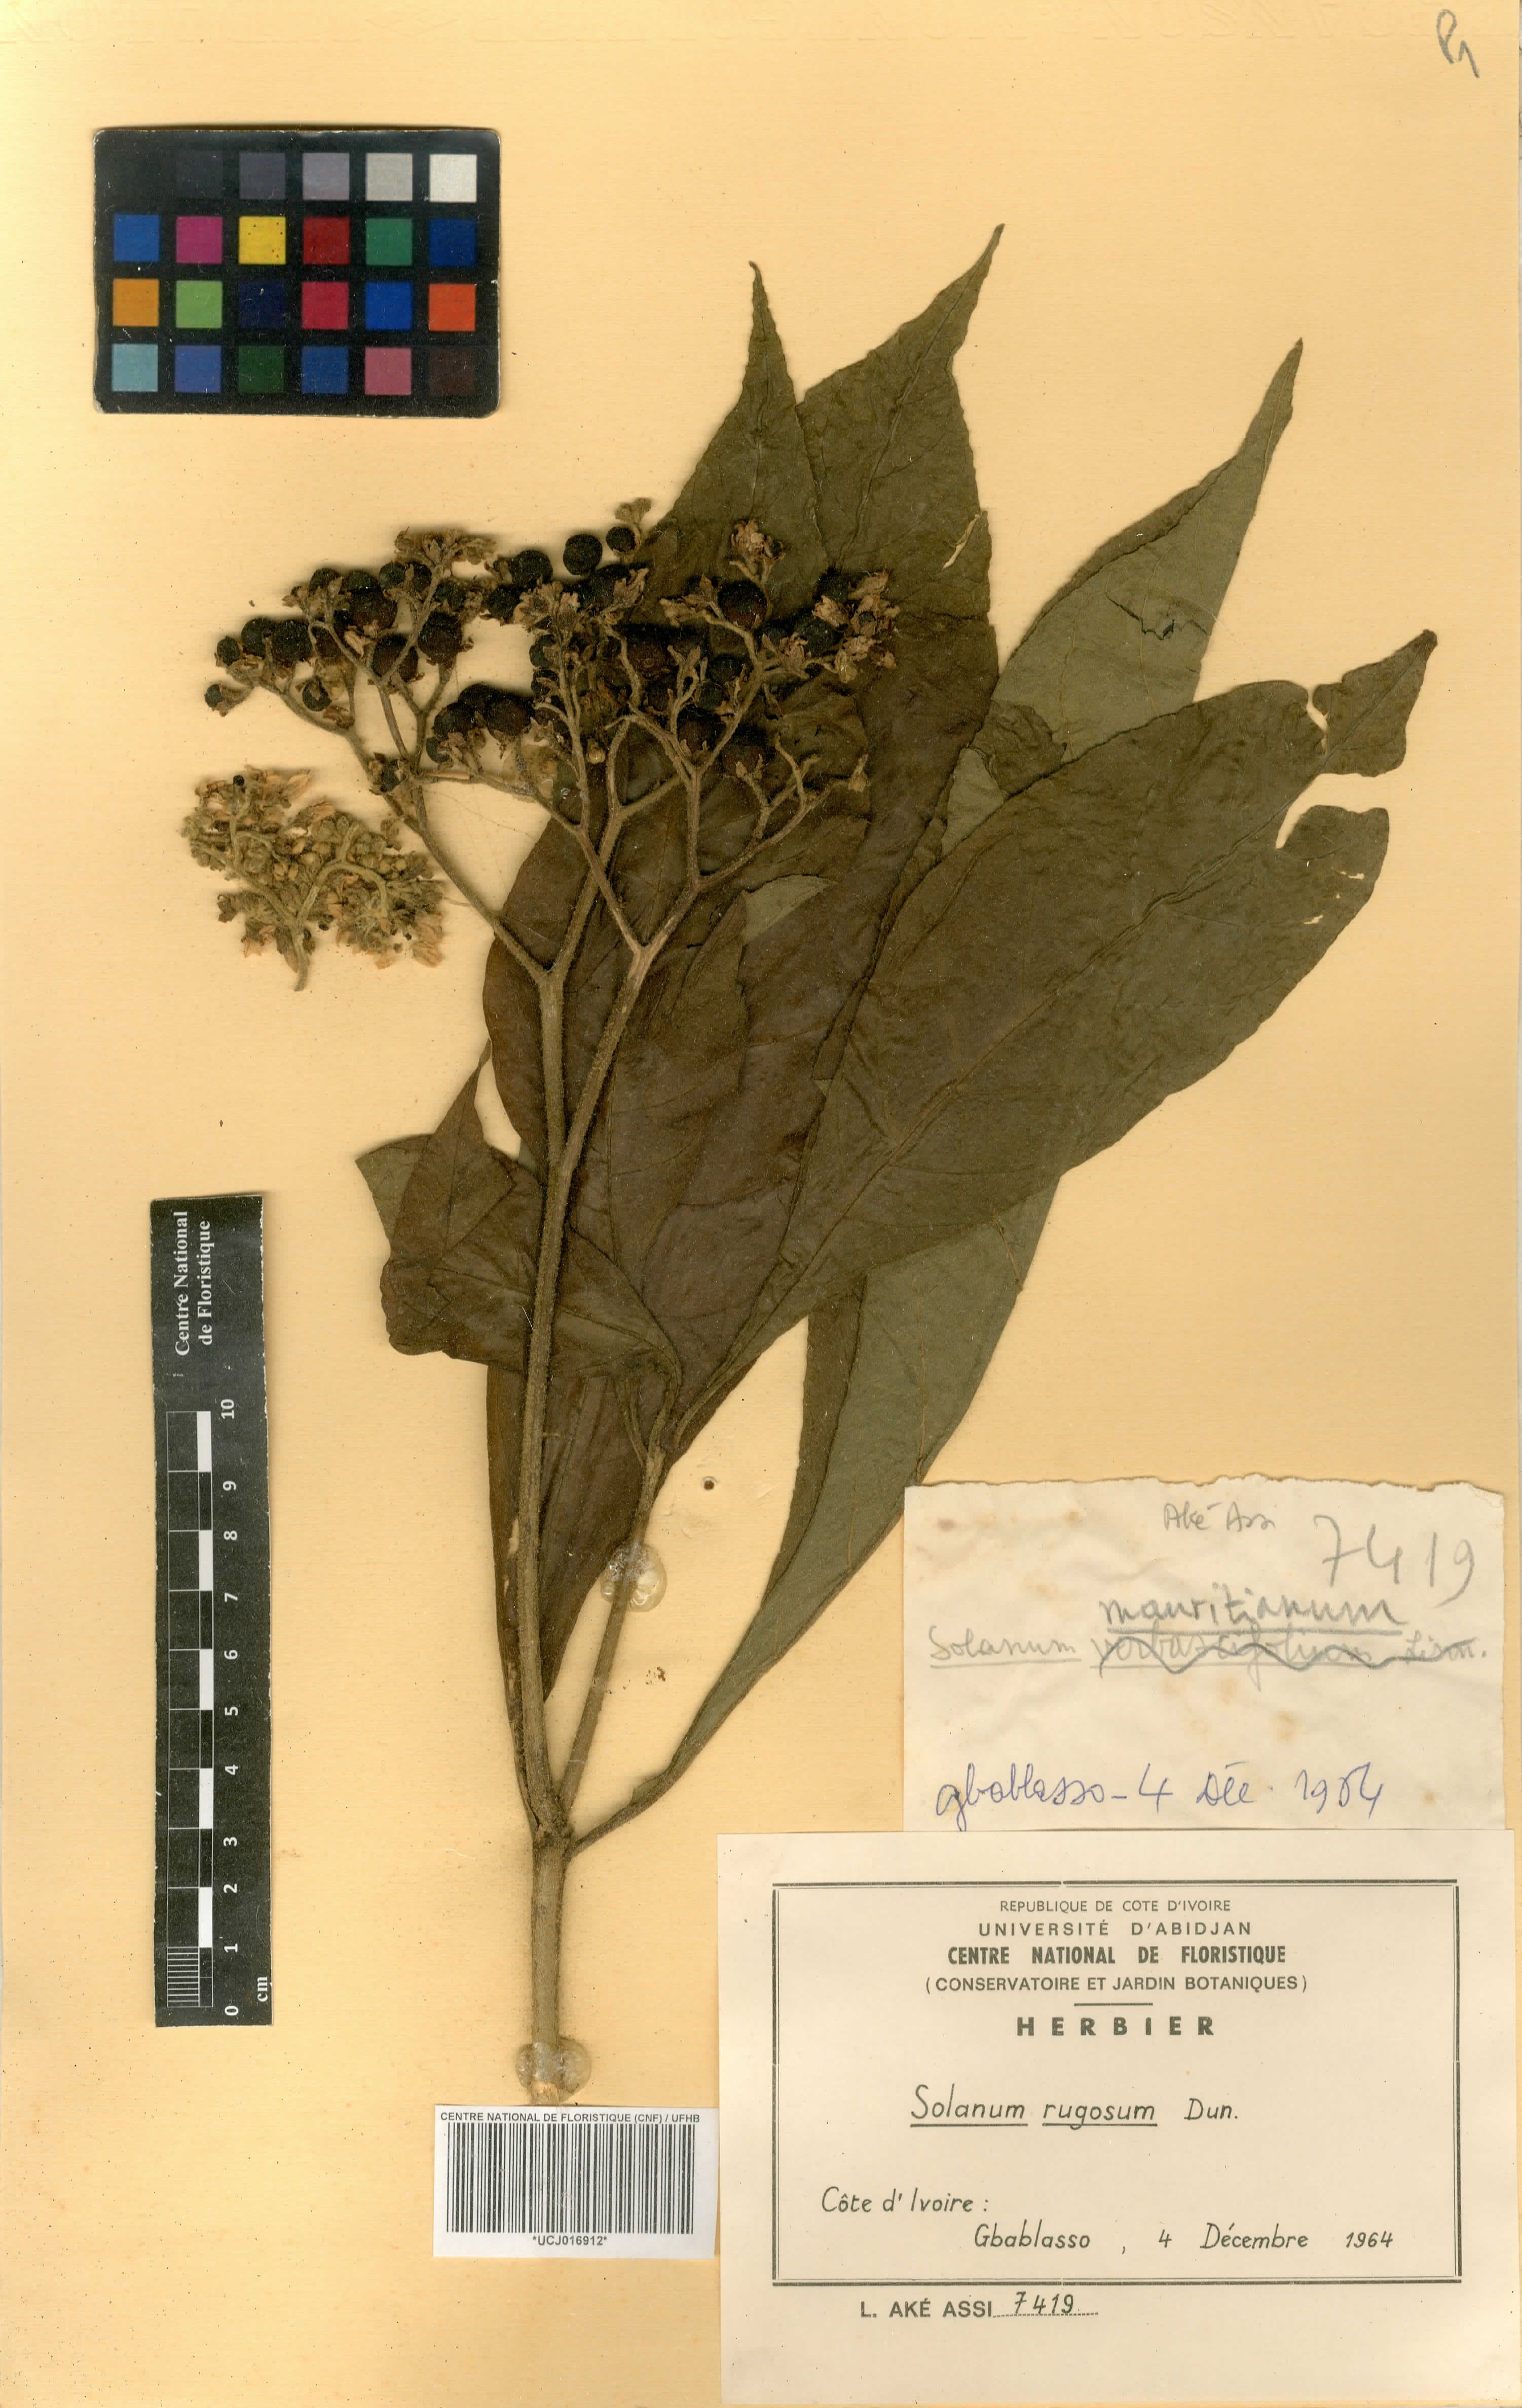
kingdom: Plantae
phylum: Tracheophyta
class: Magnoliopsida
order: Solanales
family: Solanaceae
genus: Solanum
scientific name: Solanum rugosum
